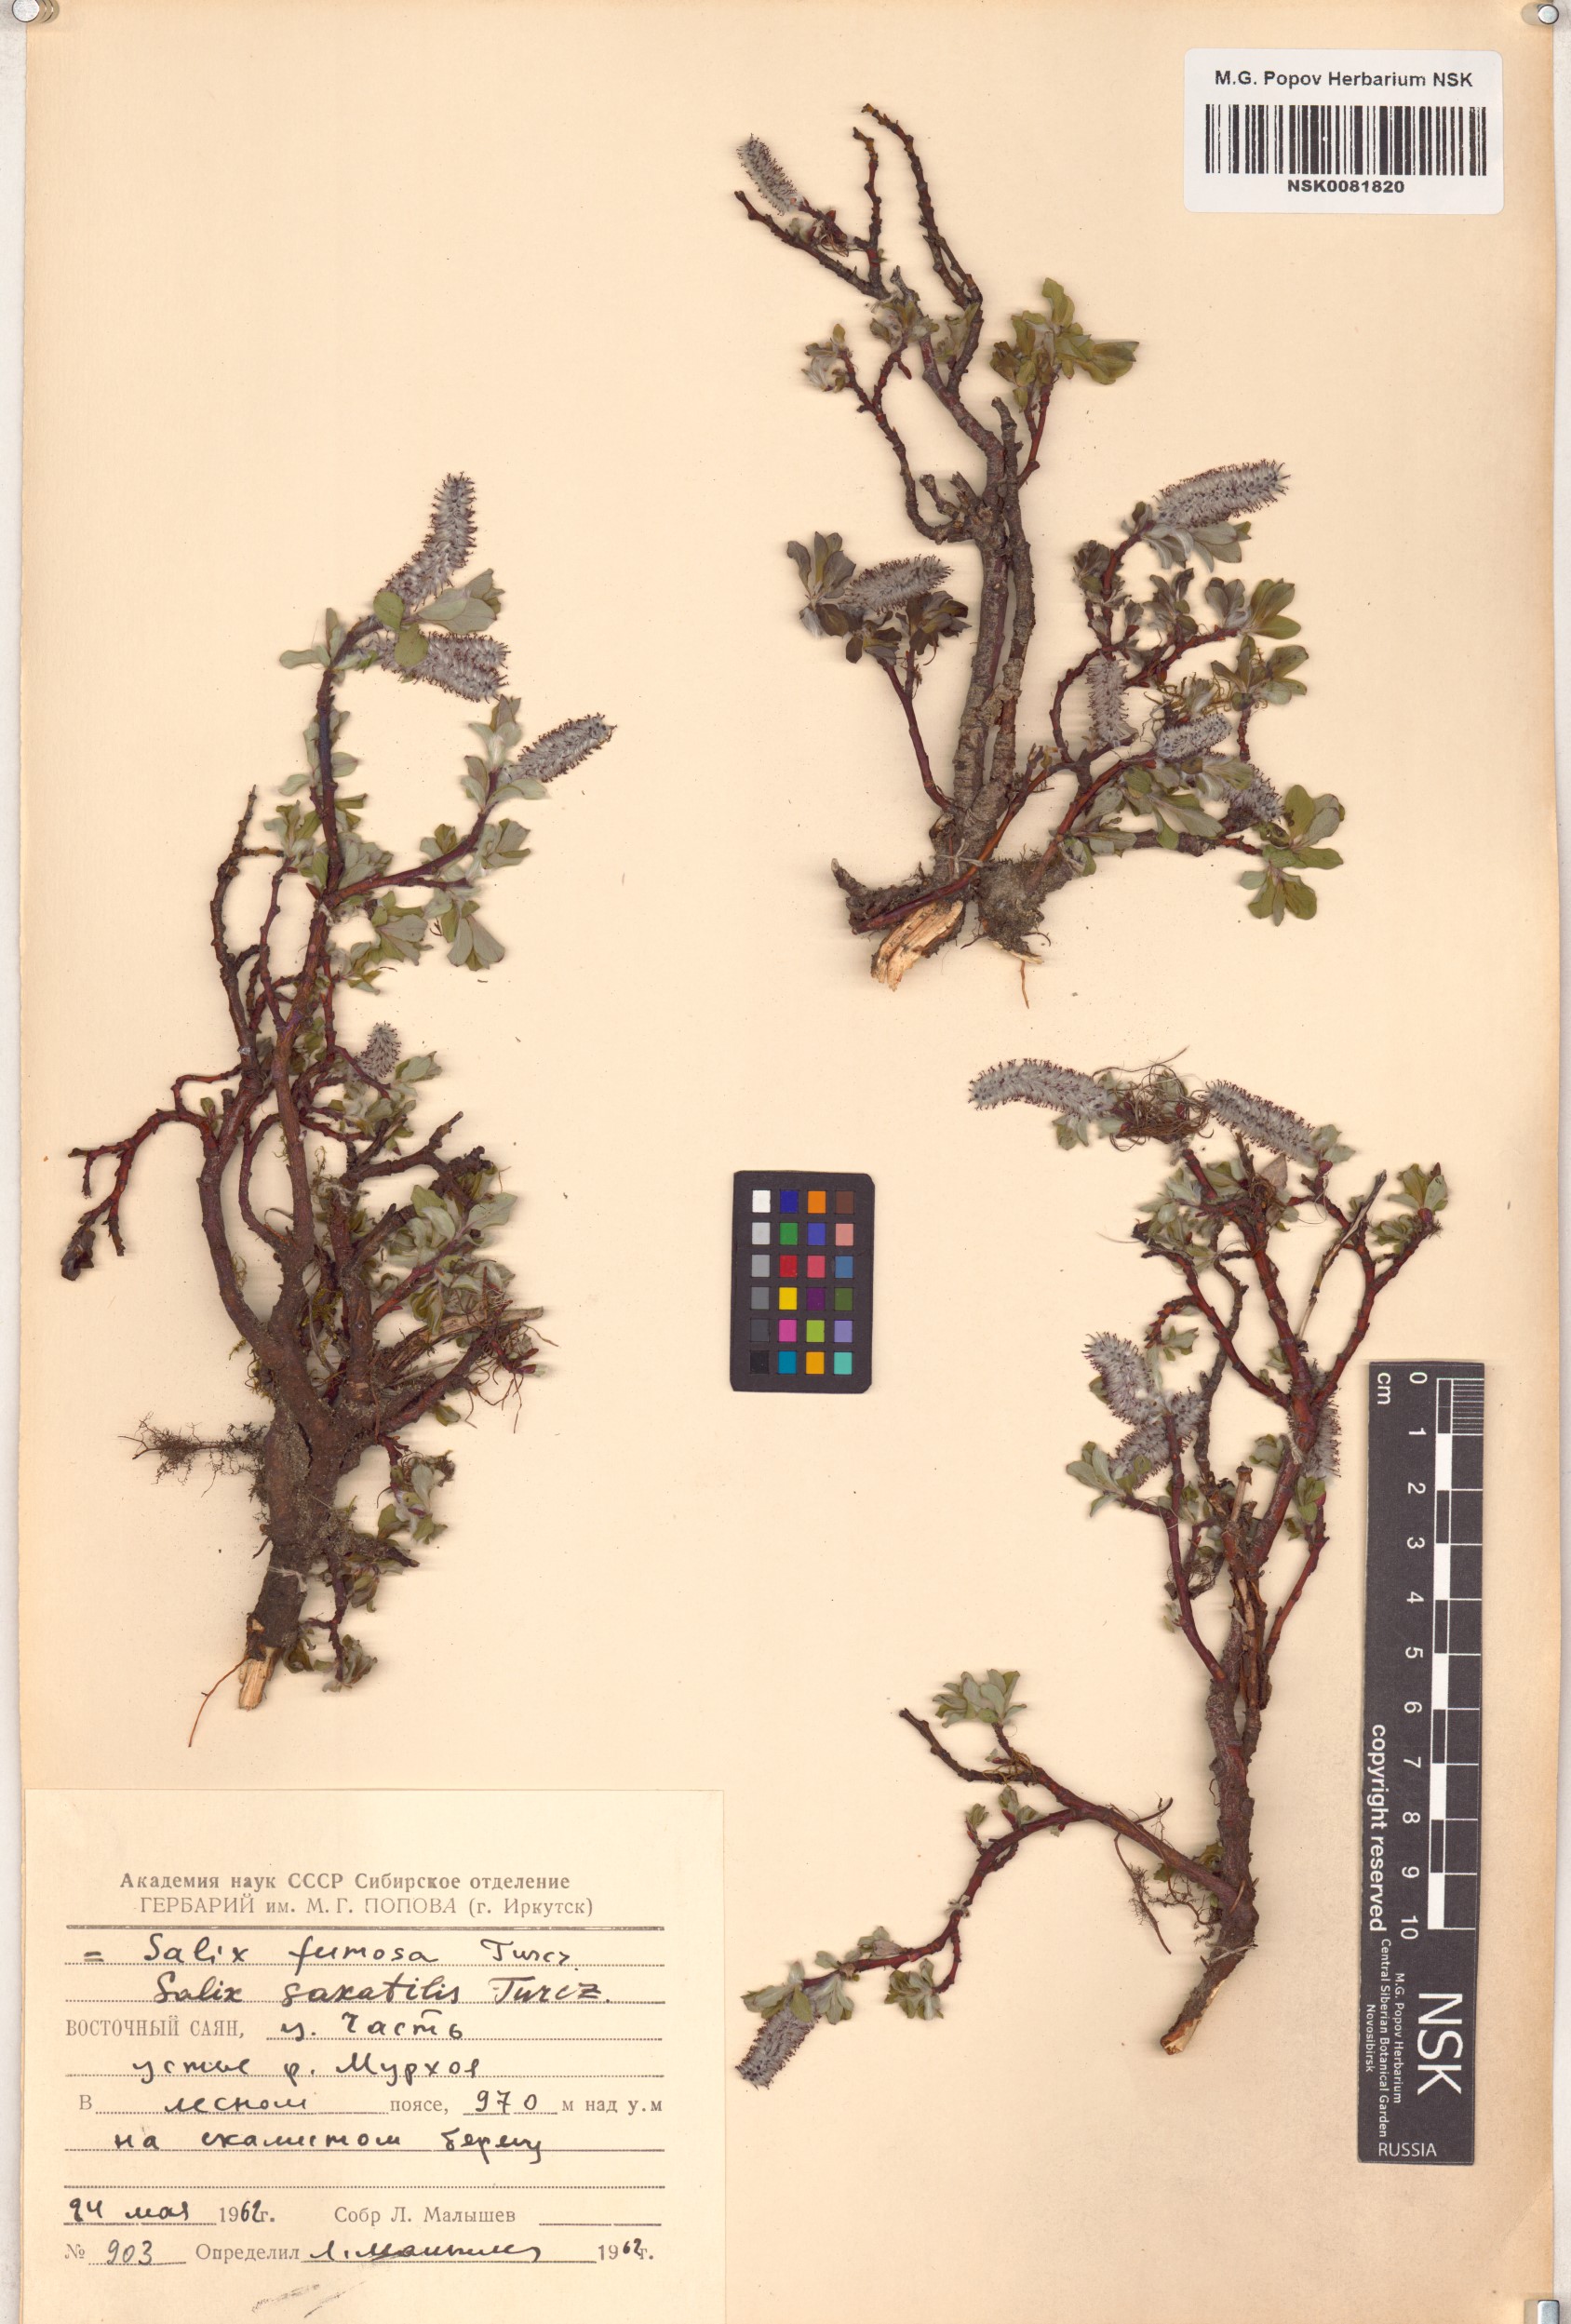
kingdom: Plantae
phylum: Tracheophyta
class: Magnoliopsida
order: Malpighiales
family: Salicaceae
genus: Salix
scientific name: Salix saxatilis
